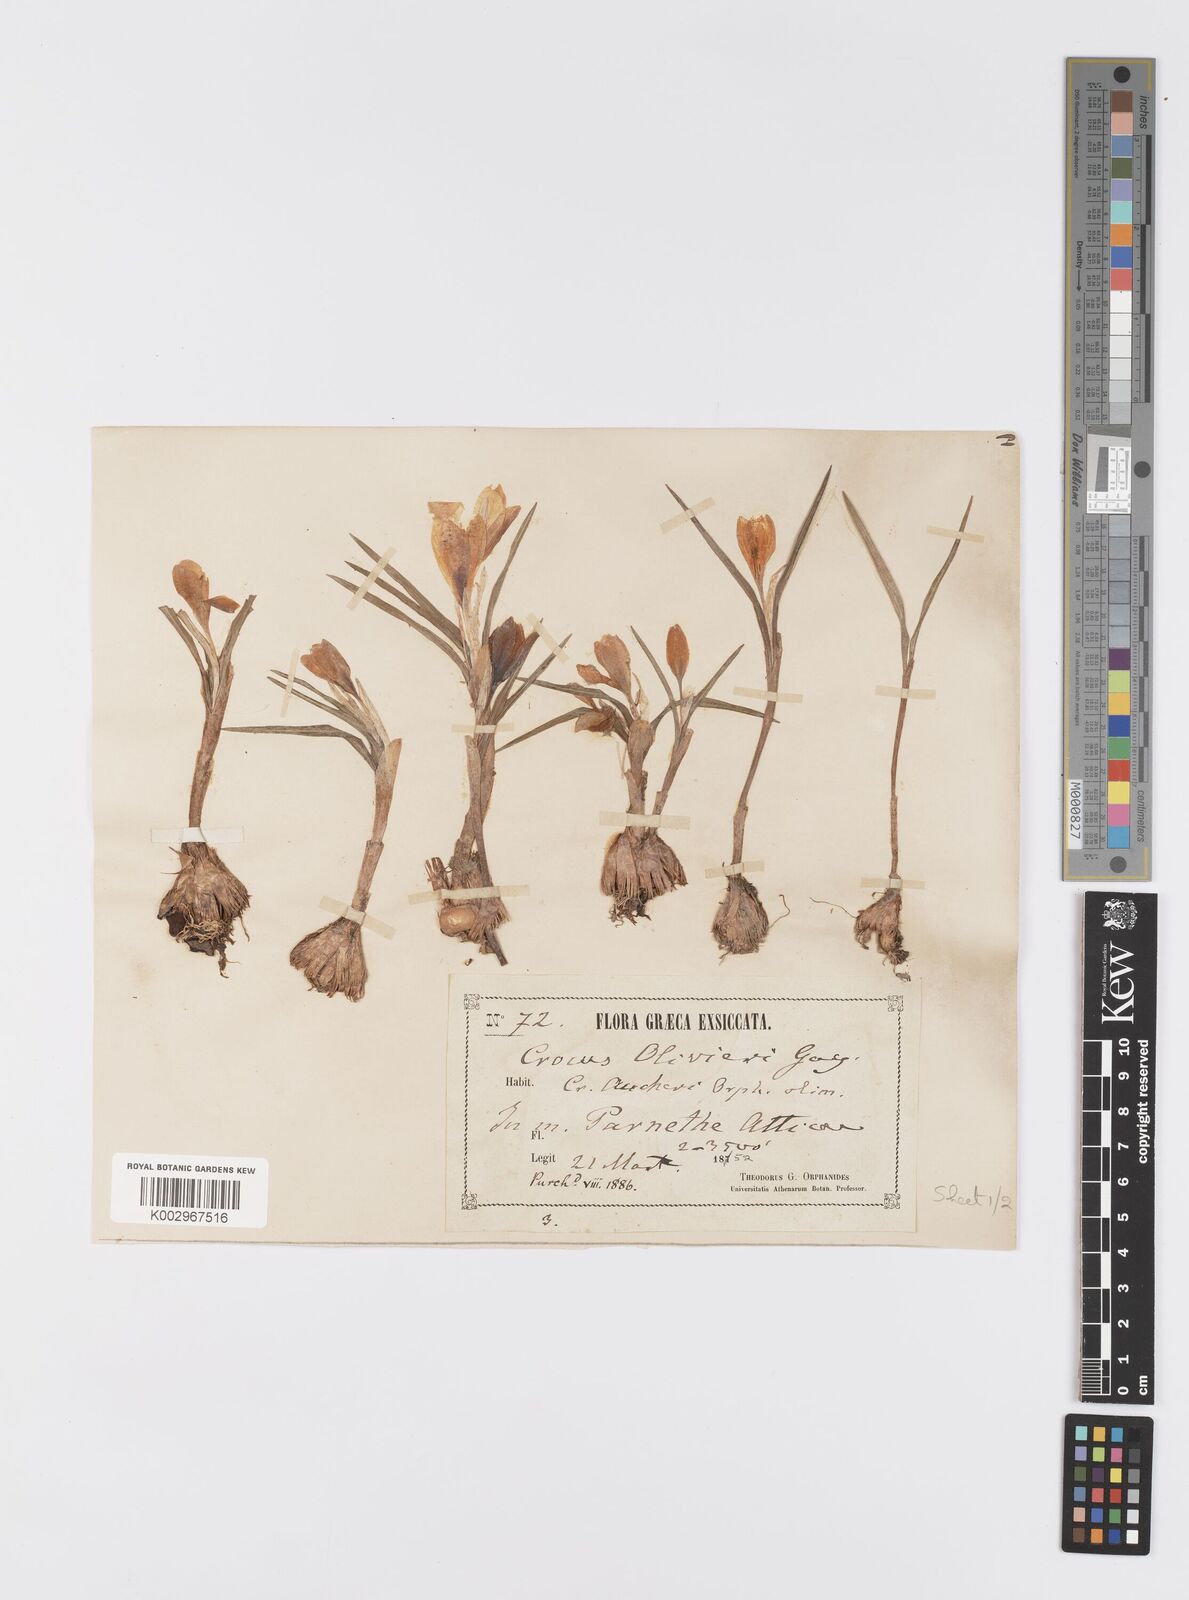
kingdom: Plantae
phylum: Tracheophyta
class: Liliopsida
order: Asparagales
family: Iridaceae
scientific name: Iridaceae
